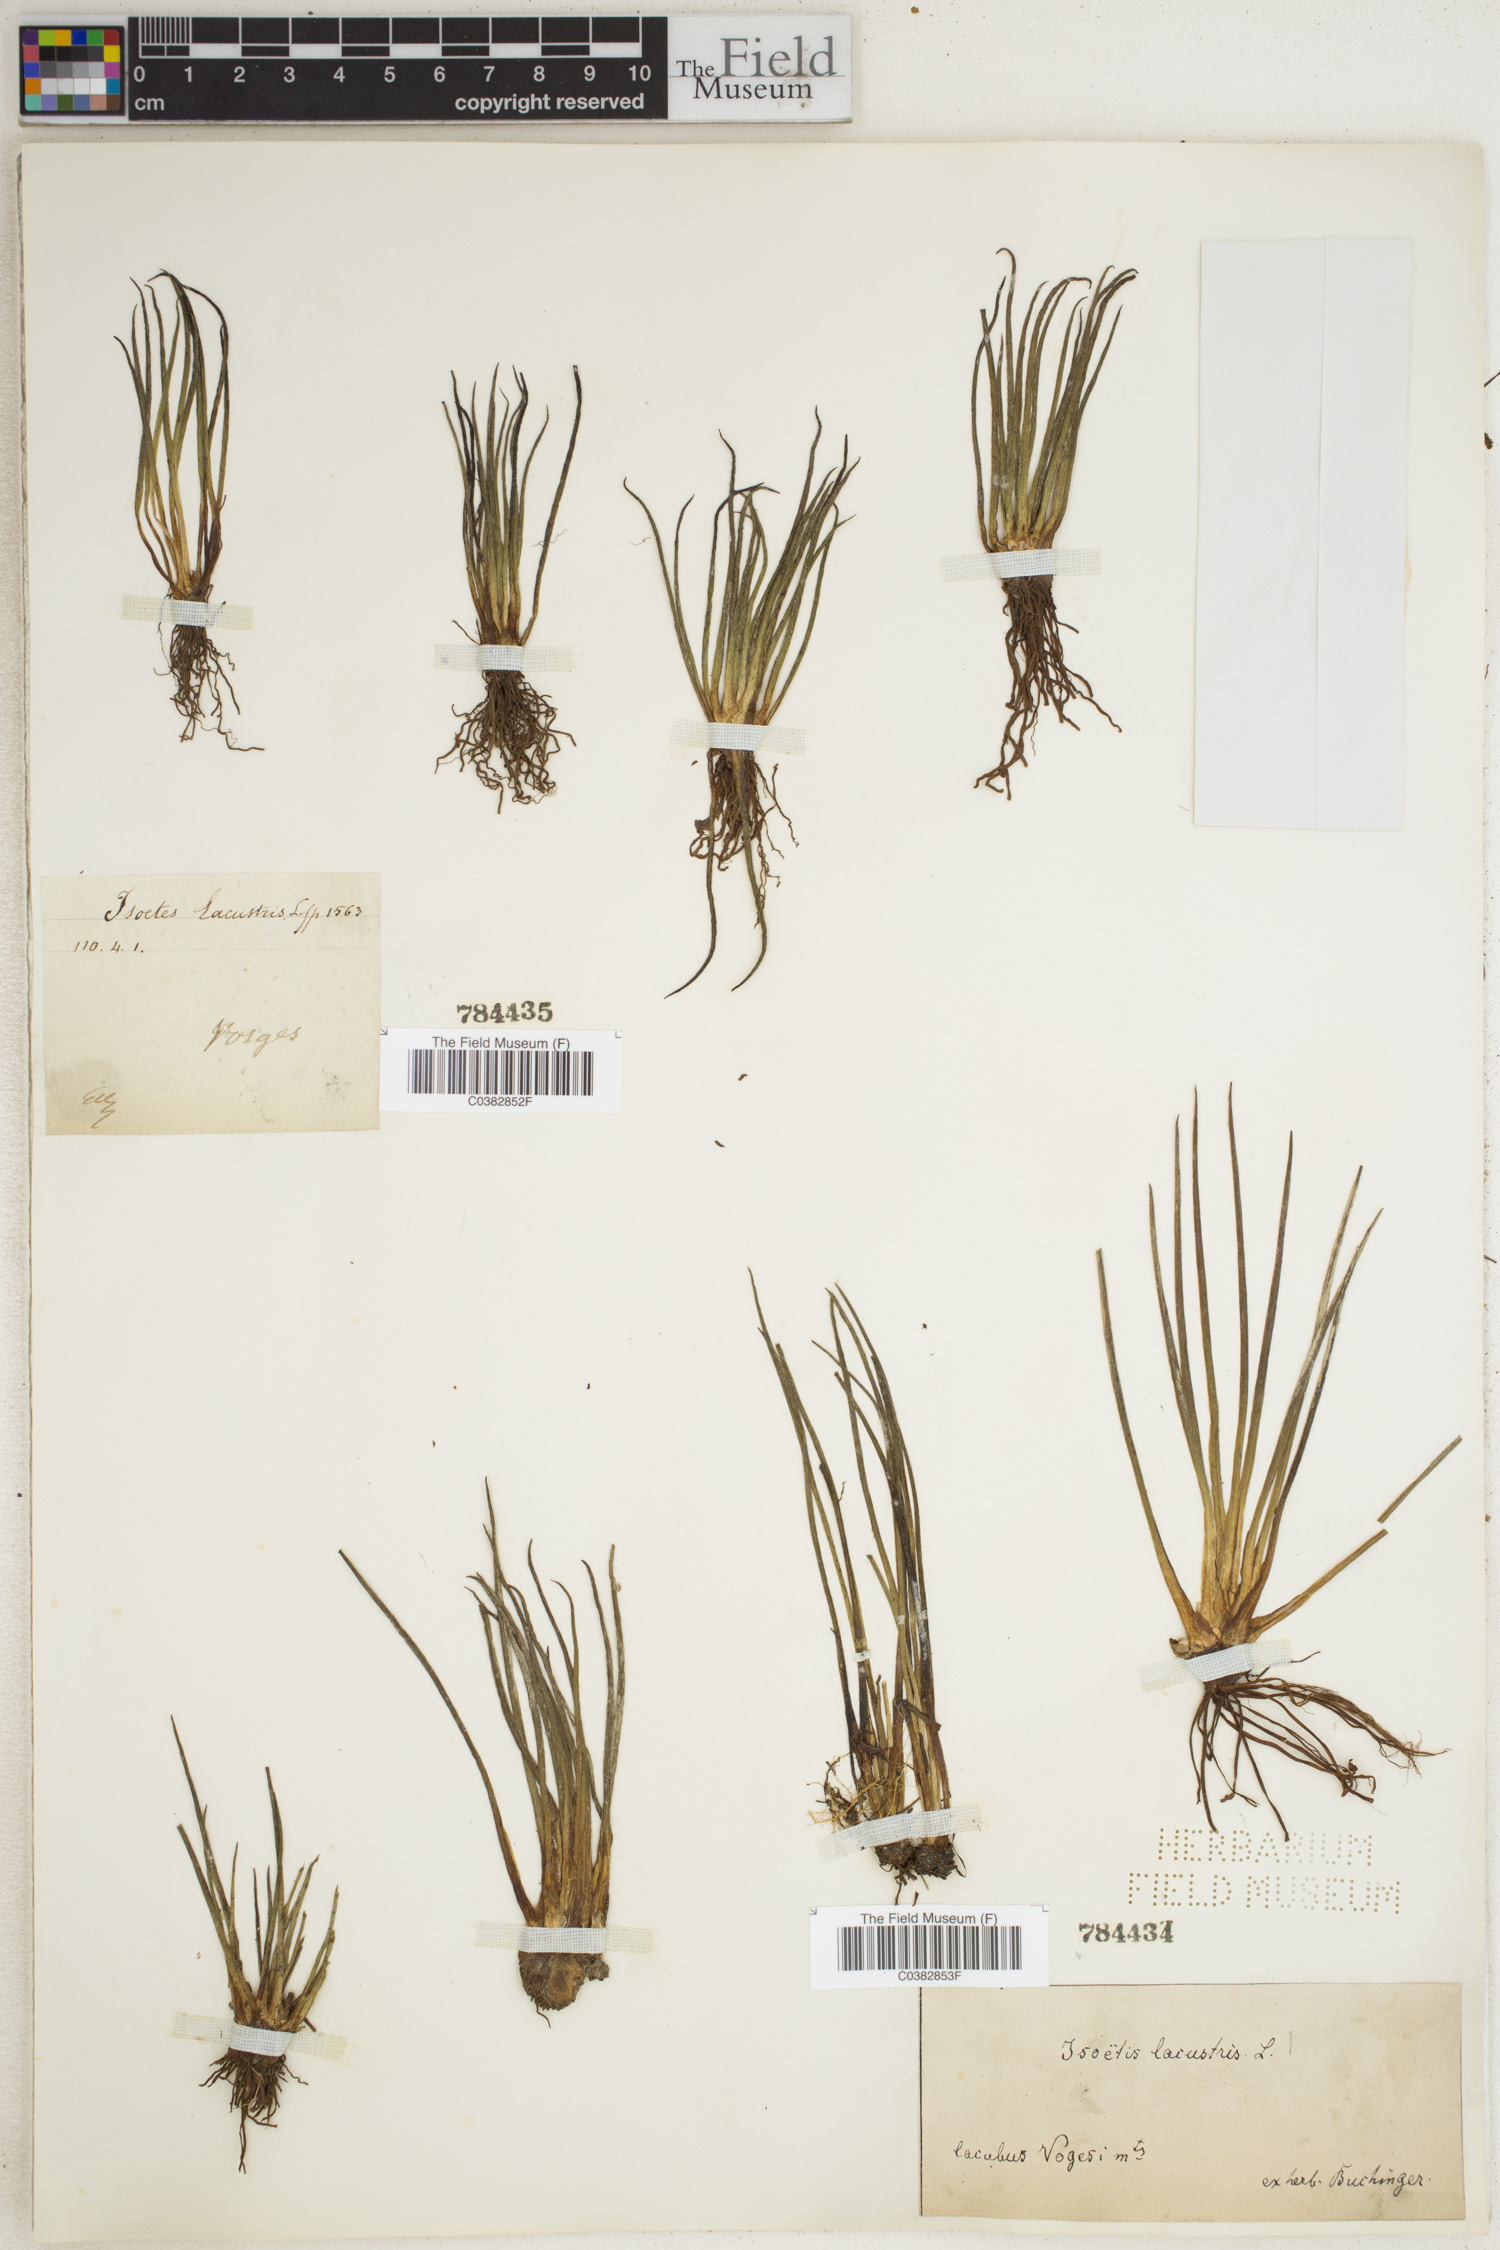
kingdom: Plantae
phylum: Tracheophyta
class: Lycopodiopsida
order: Isoetales
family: Isoetaceae
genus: Isoetes
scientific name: Isoetes lacustris
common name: Common quillwort
